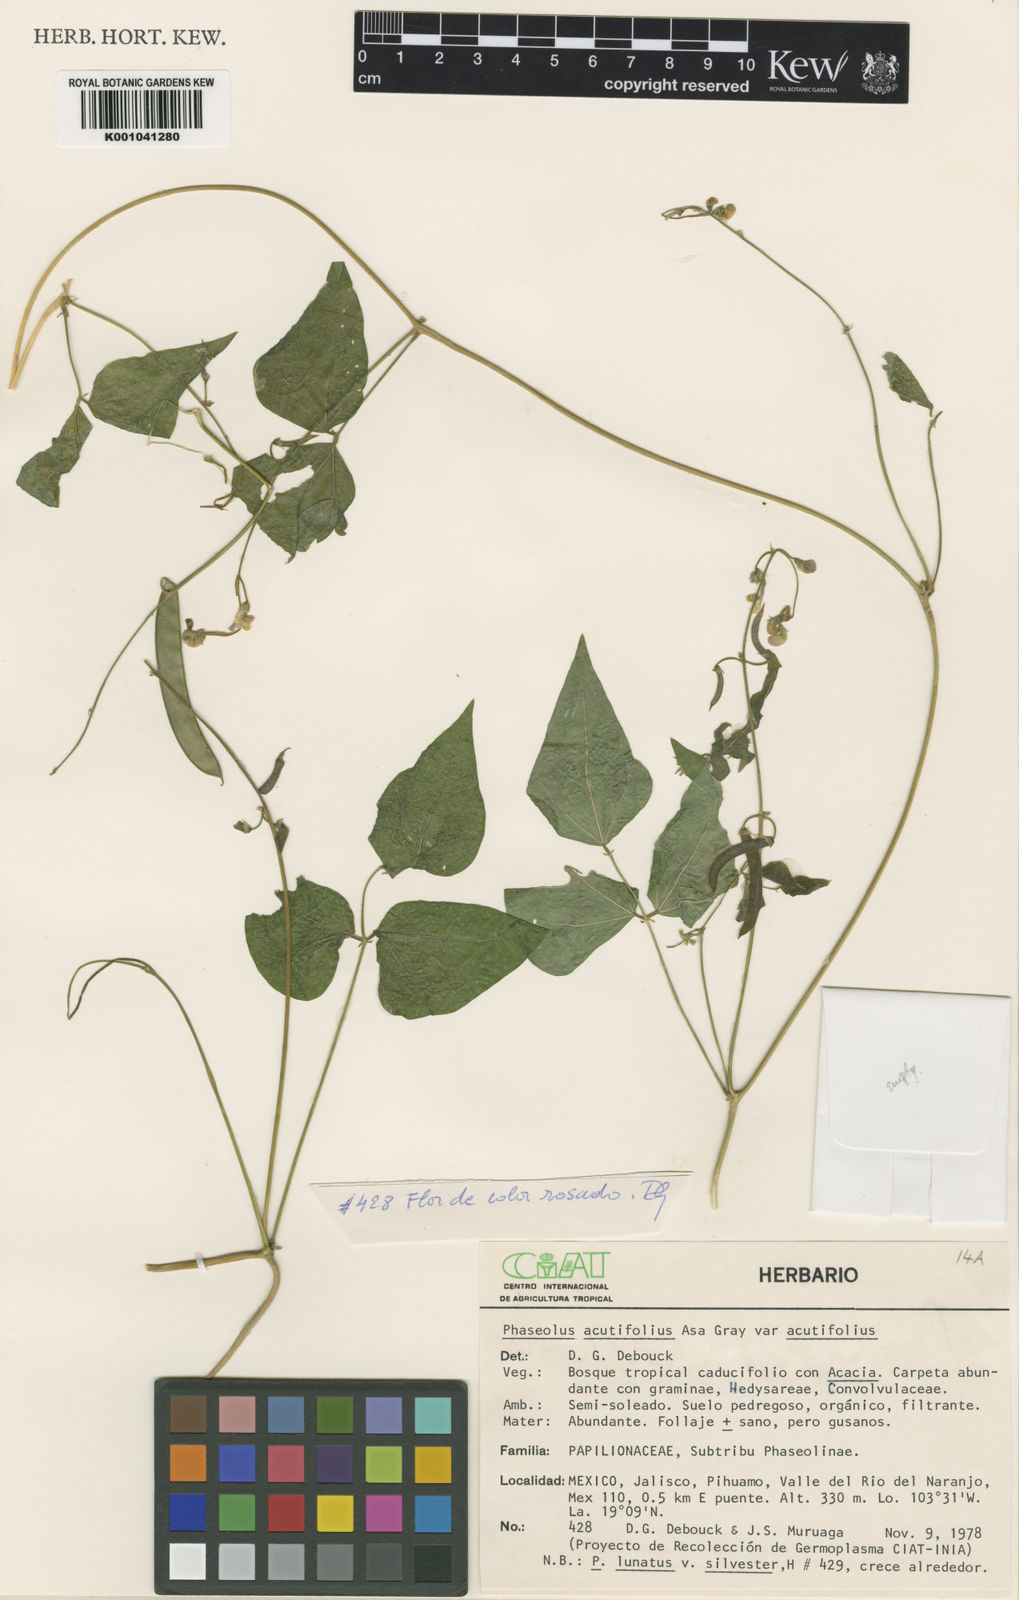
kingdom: Plantae
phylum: Tracheophyta
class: Magnoliopsida
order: Fabales
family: Fabaceae
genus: Phaseolus
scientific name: Phaseolus acutifolius
